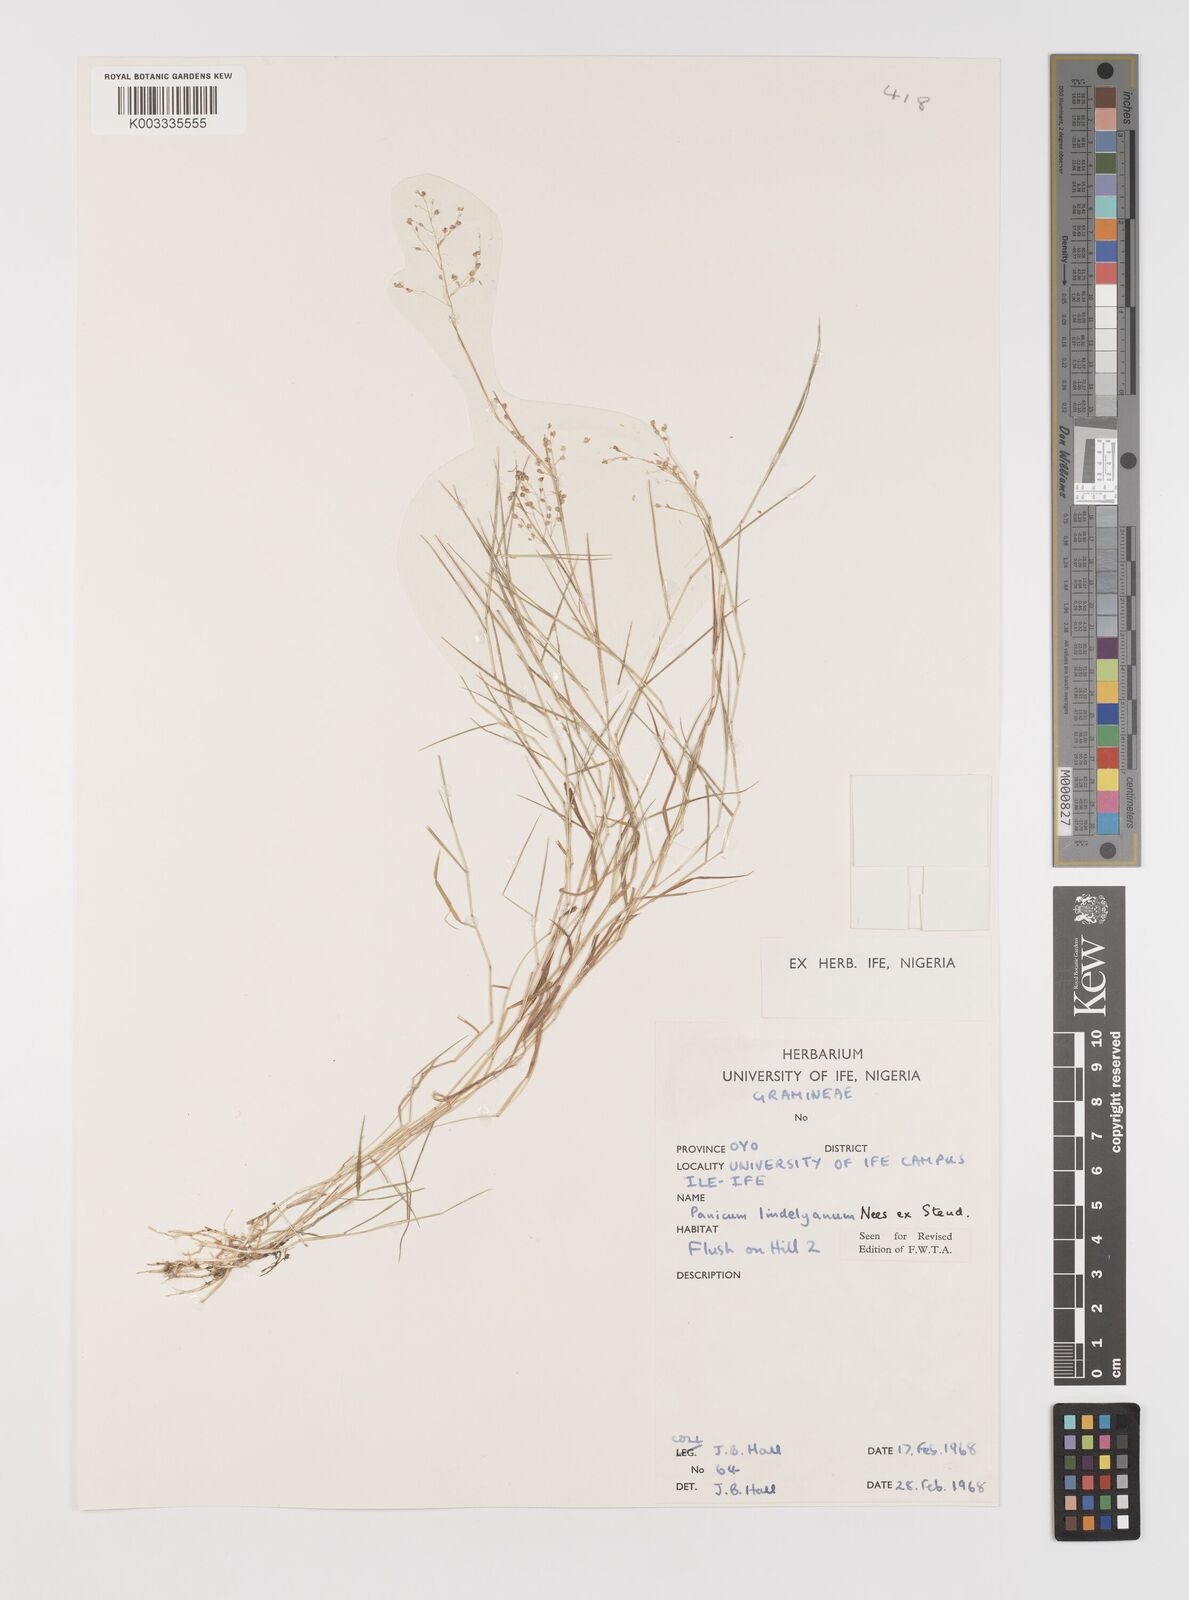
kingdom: Plantae
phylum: Tracheophyta
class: Liliopsida
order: Poales
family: Poaceae
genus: Trichanthecium
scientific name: Trichanthecium tenellum
